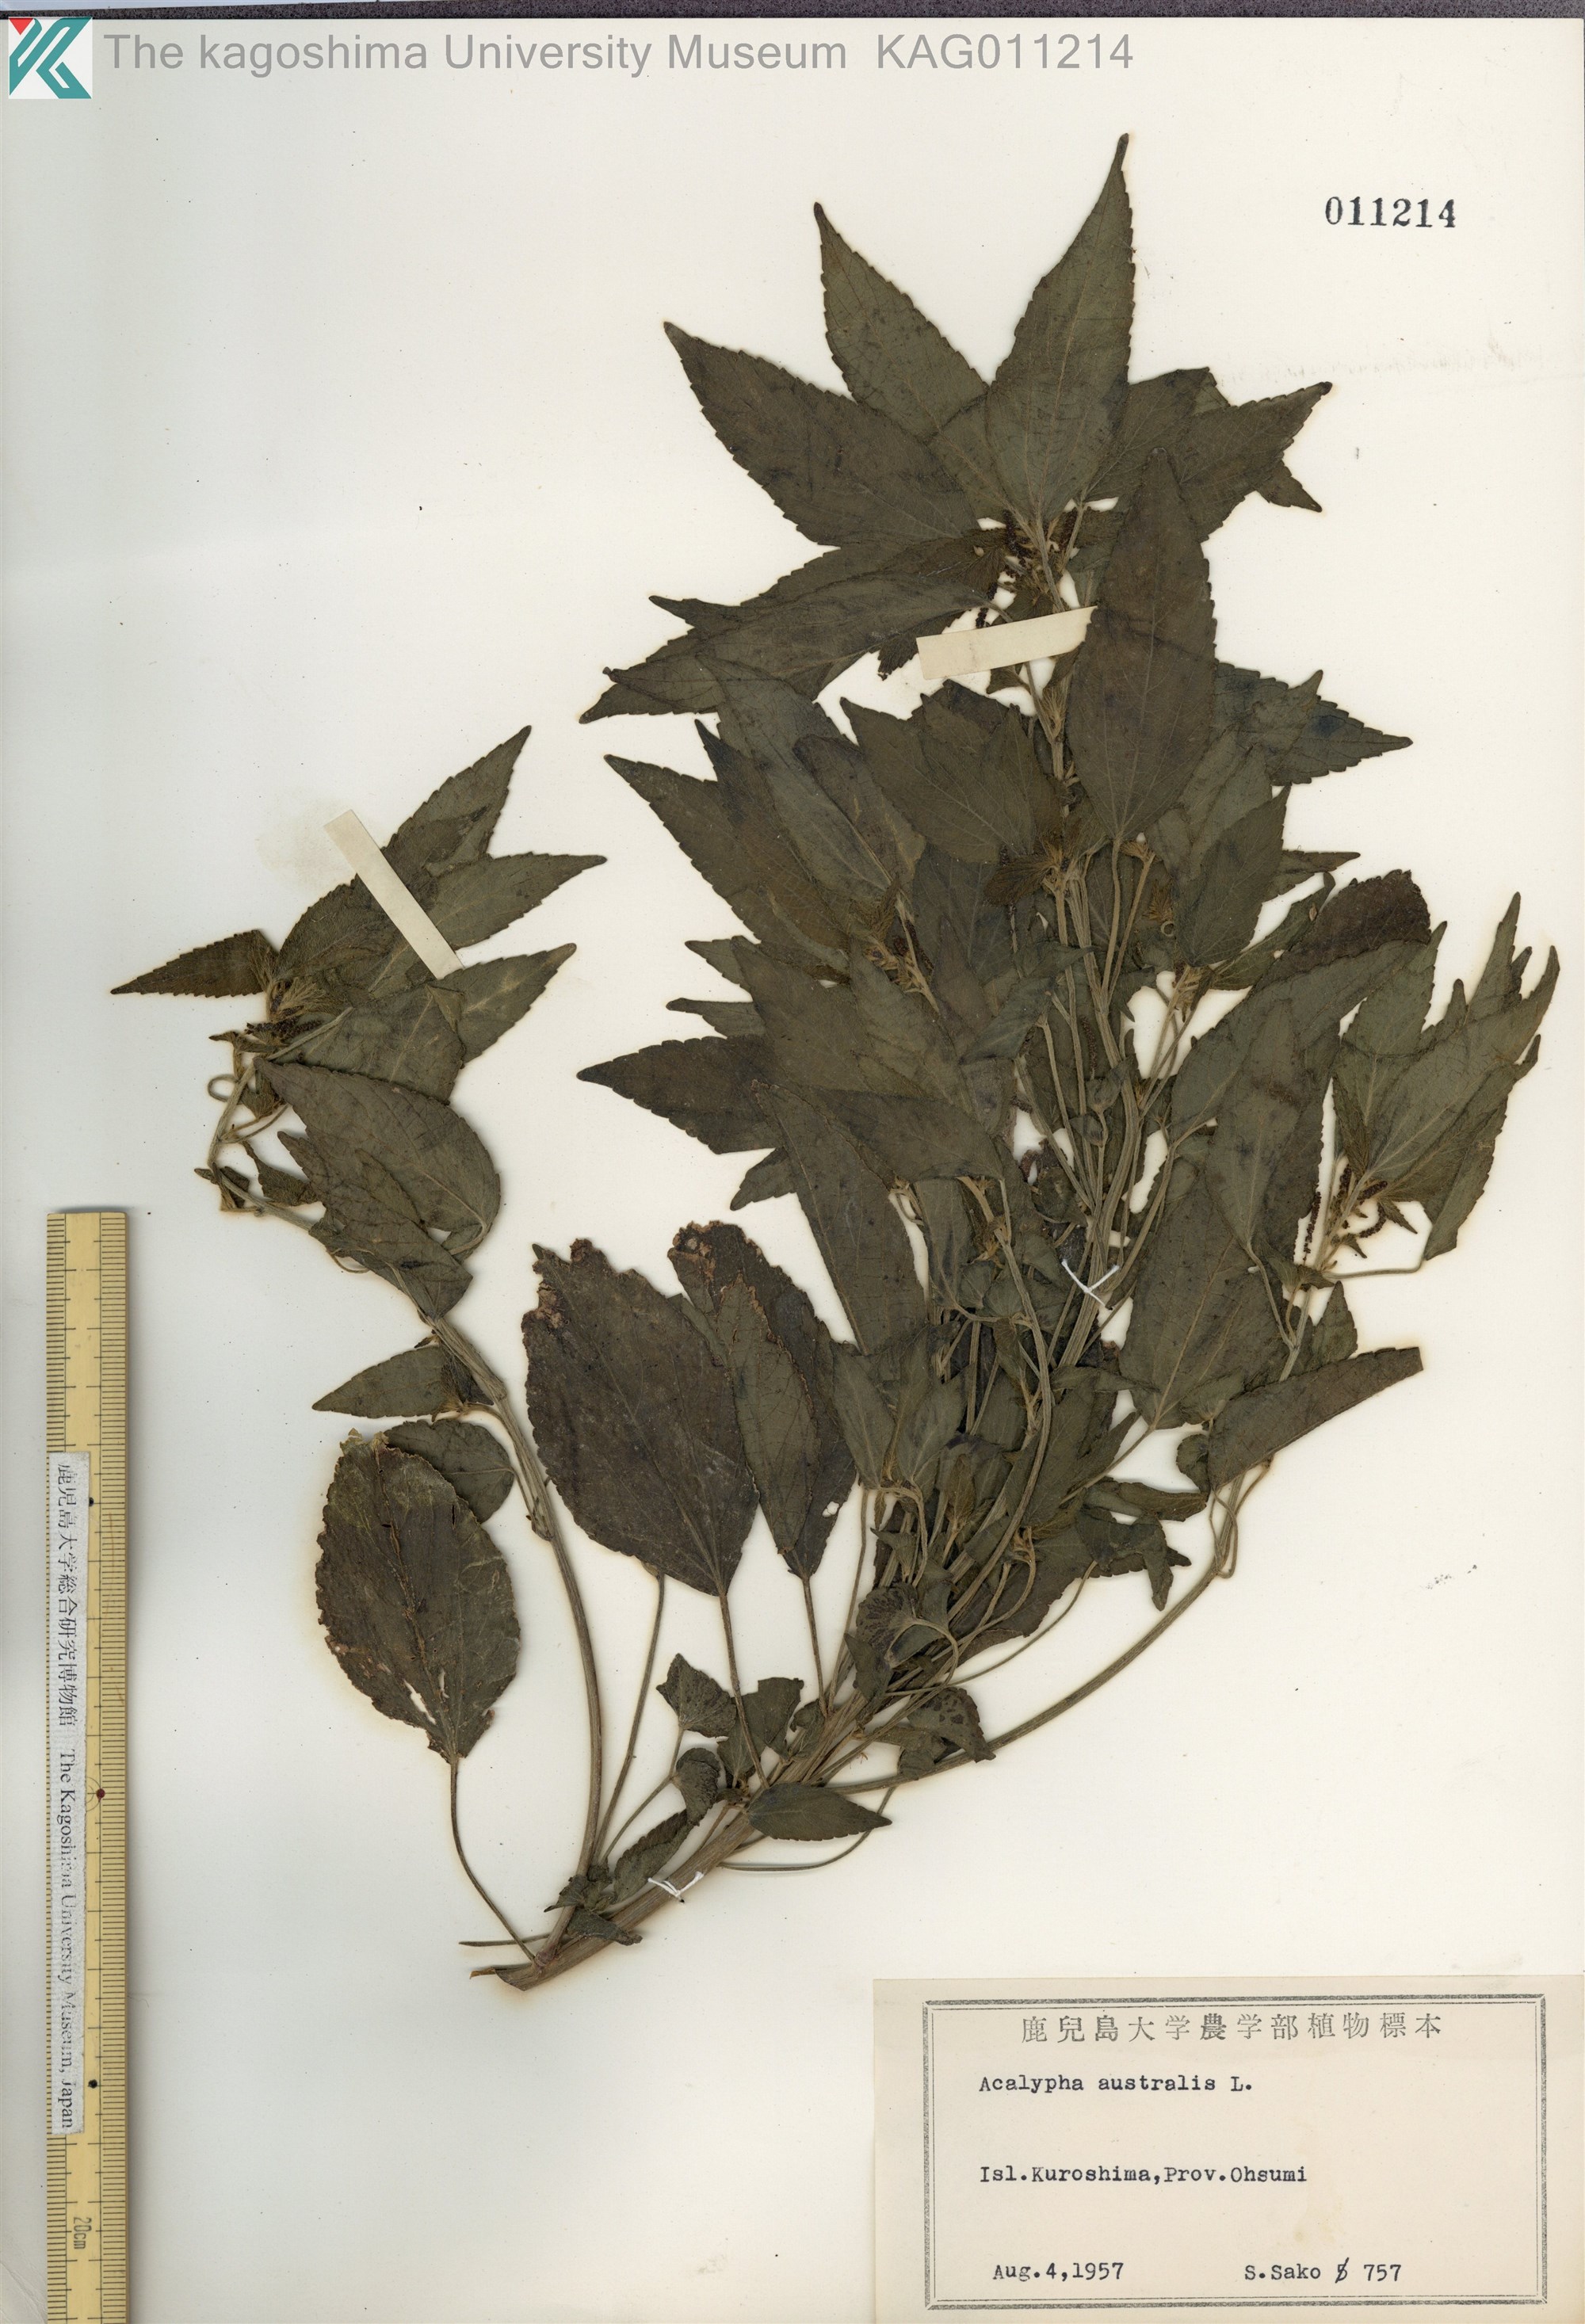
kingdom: Plantae
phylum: Tracheophyta
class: Magnoliopsida
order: Malpighiales
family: Euphorbiaceae
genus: Acalypha
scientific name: Acalypha australis
